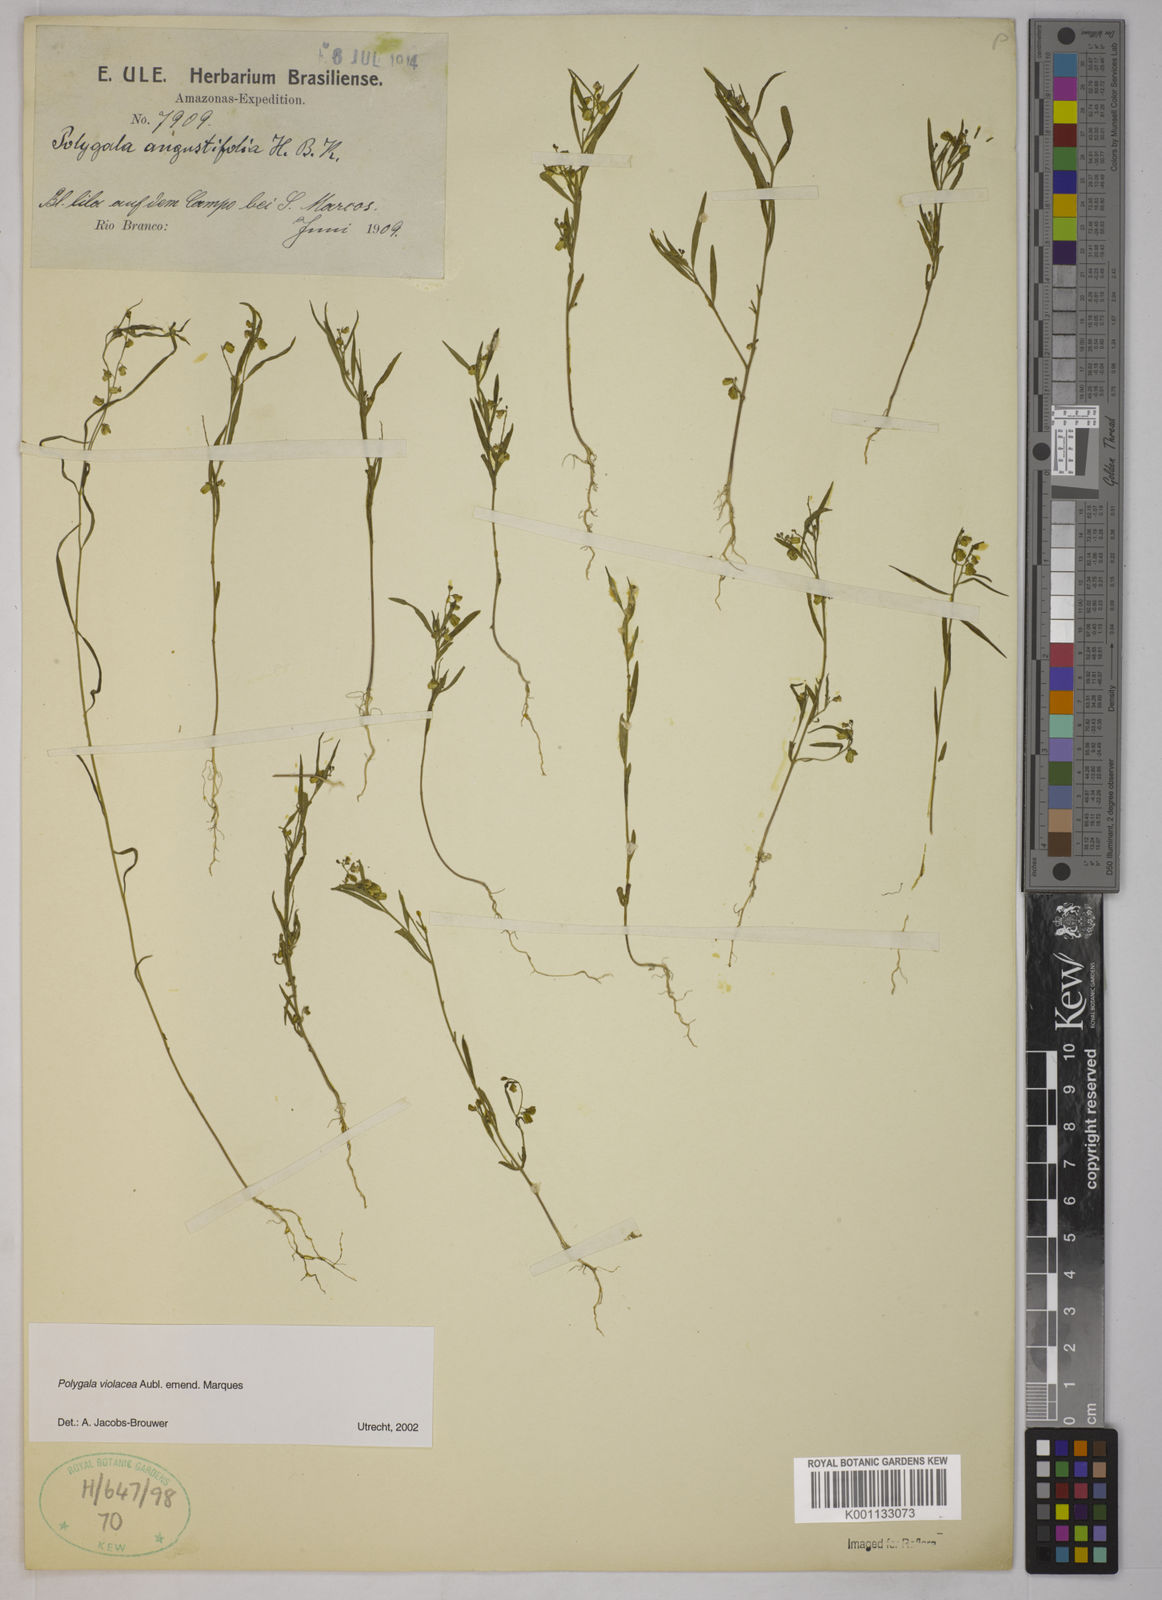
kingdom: Plantae
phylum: Tracheophyta
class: Magnoliopsida
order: Fabales
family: Polygalaceae
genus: Polygala
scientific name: Polygala
